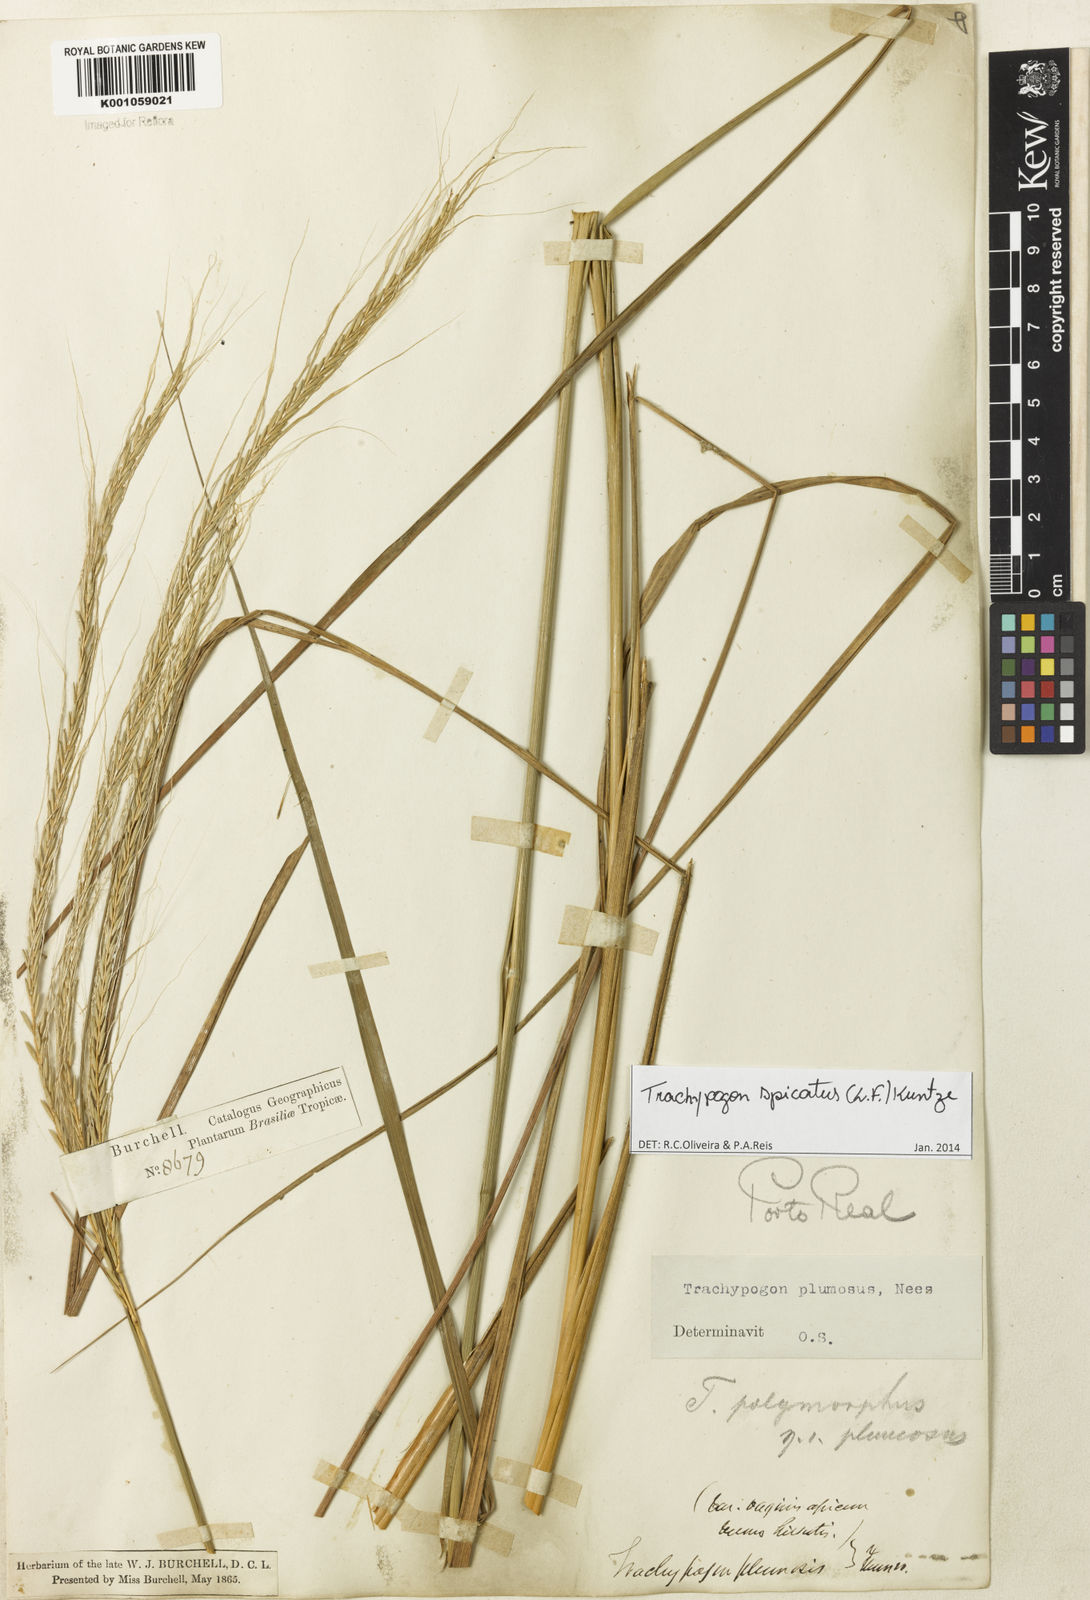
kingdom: Plantae
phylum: Tracheophyta
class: Liliopsida
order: Poales
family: Poaceae
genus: Trachypogon
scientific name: Trachypogon spicatus
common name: Crinkle-awn
